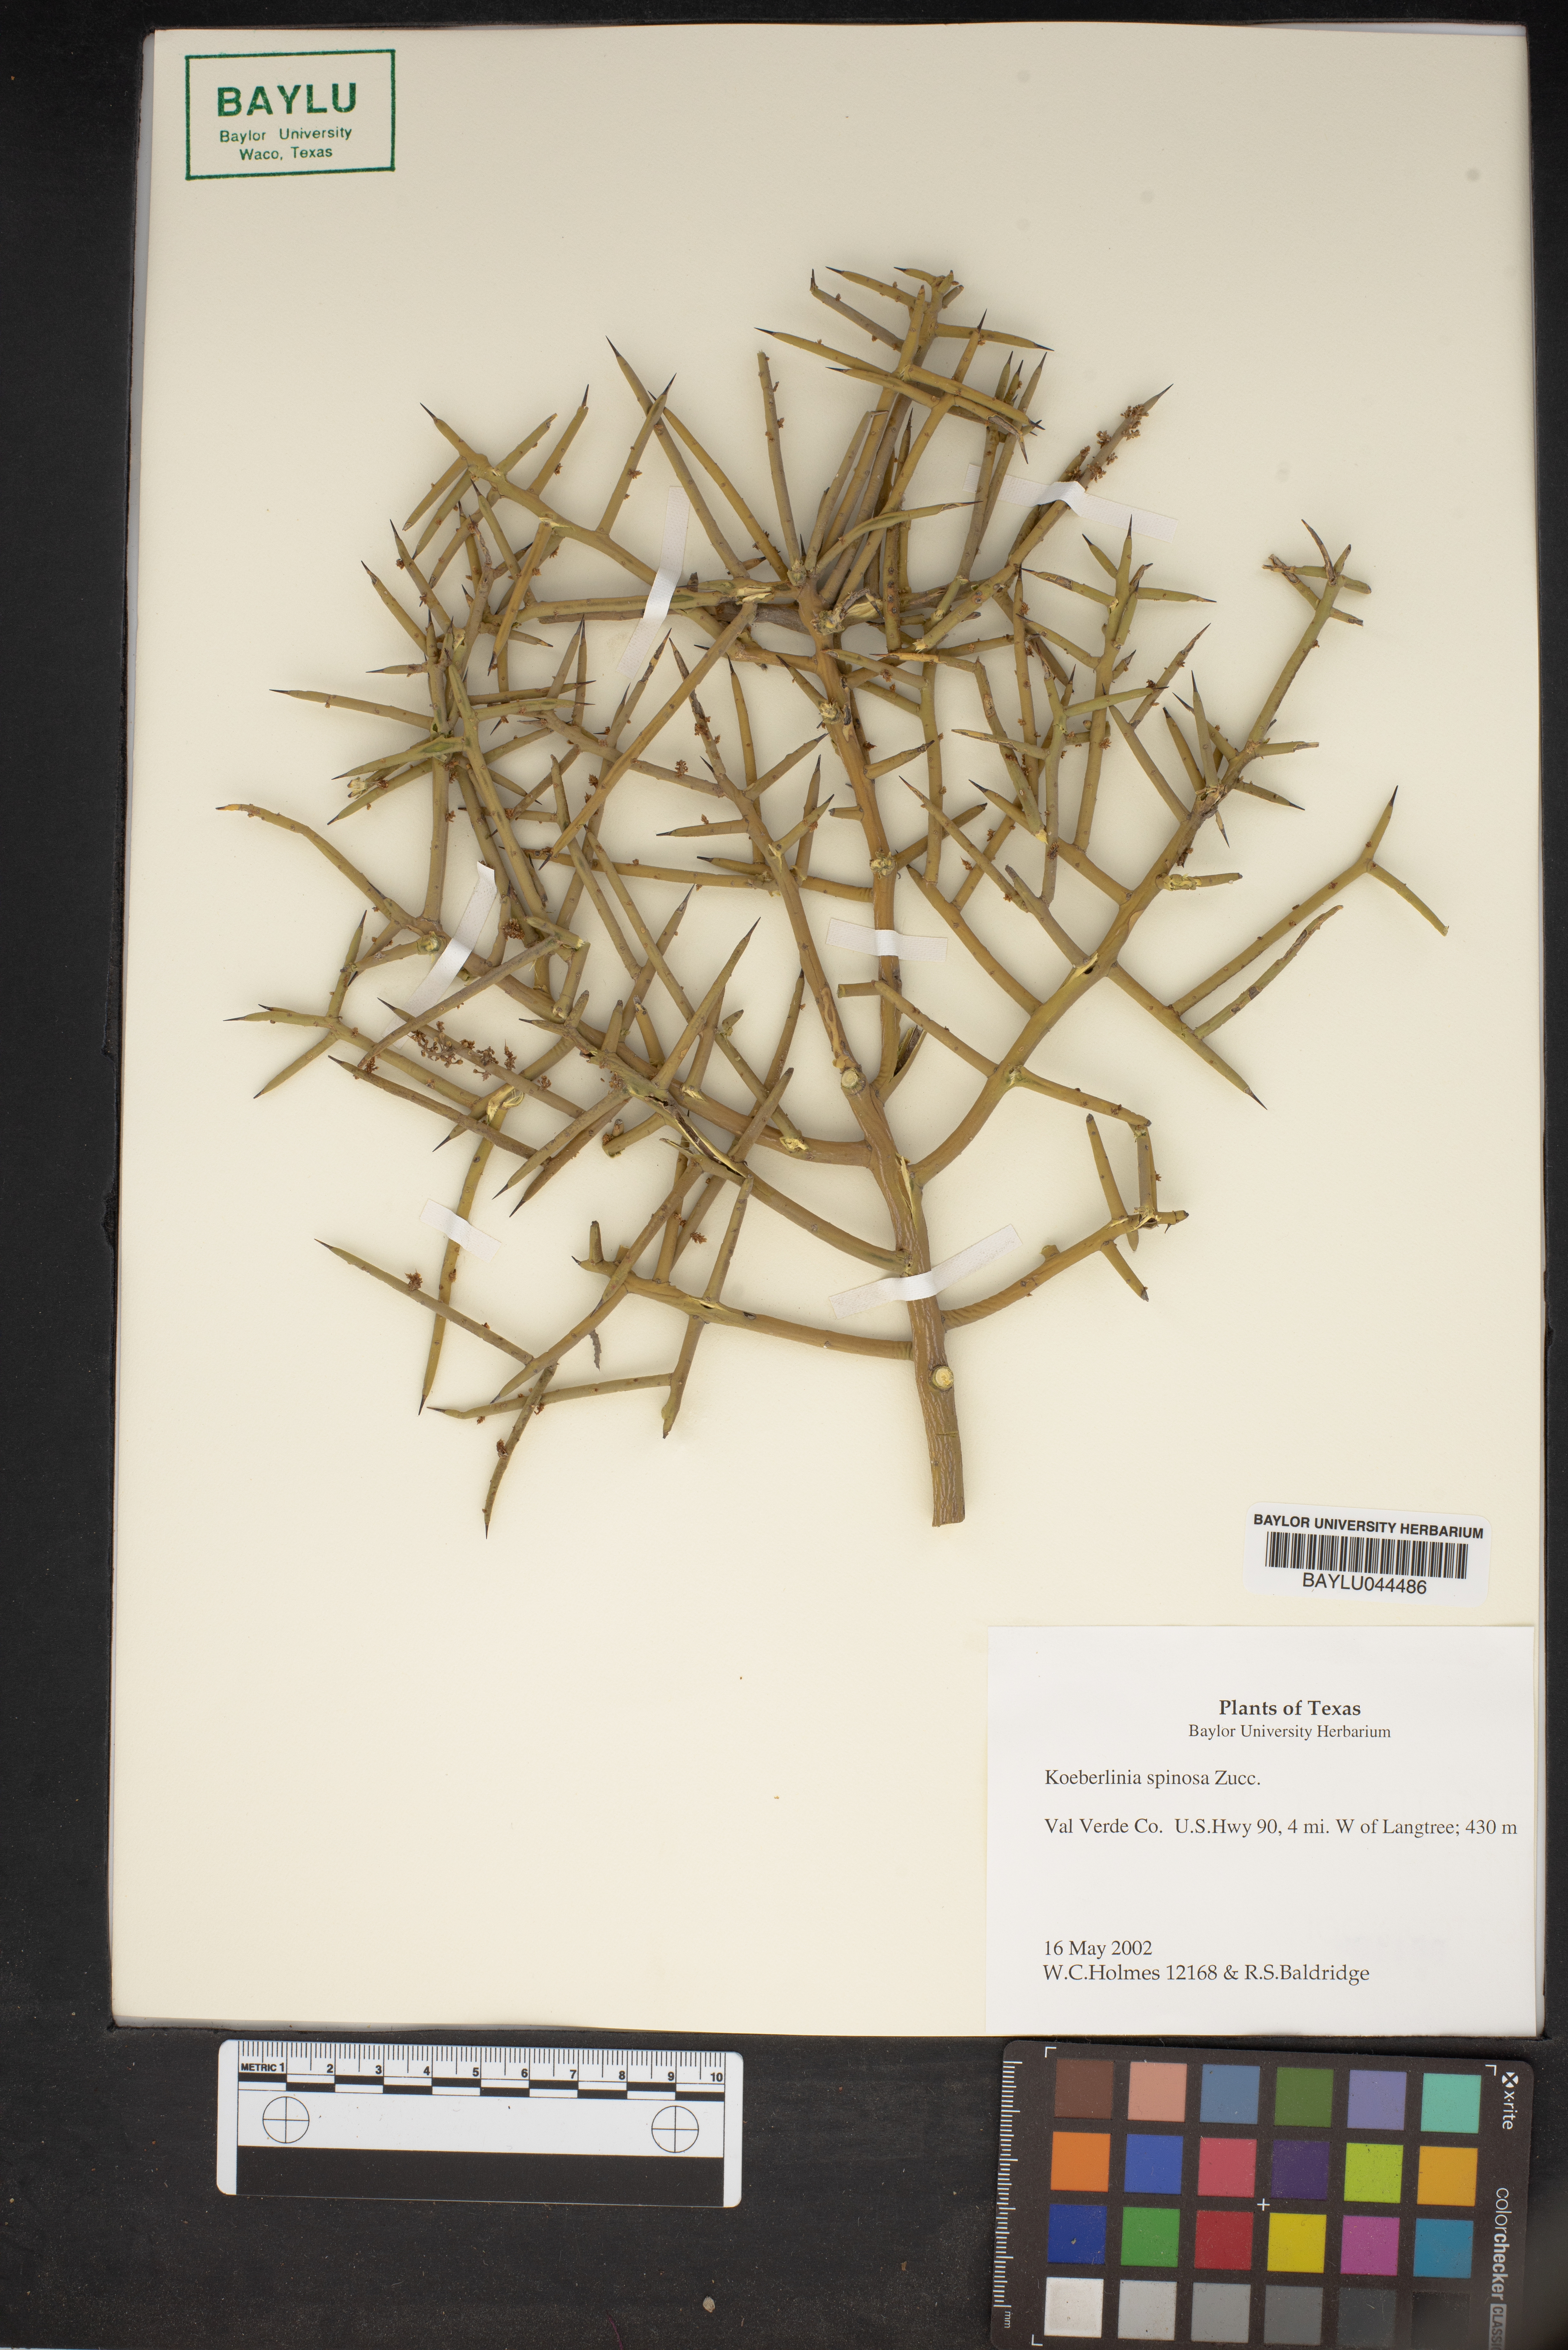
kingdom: Plantae
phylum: Tracheophyta
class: Magnoliopsida
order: Brassicales
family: Koeberliniaceae
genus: Koeberlinia
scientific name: Koeberlinia spinosa
